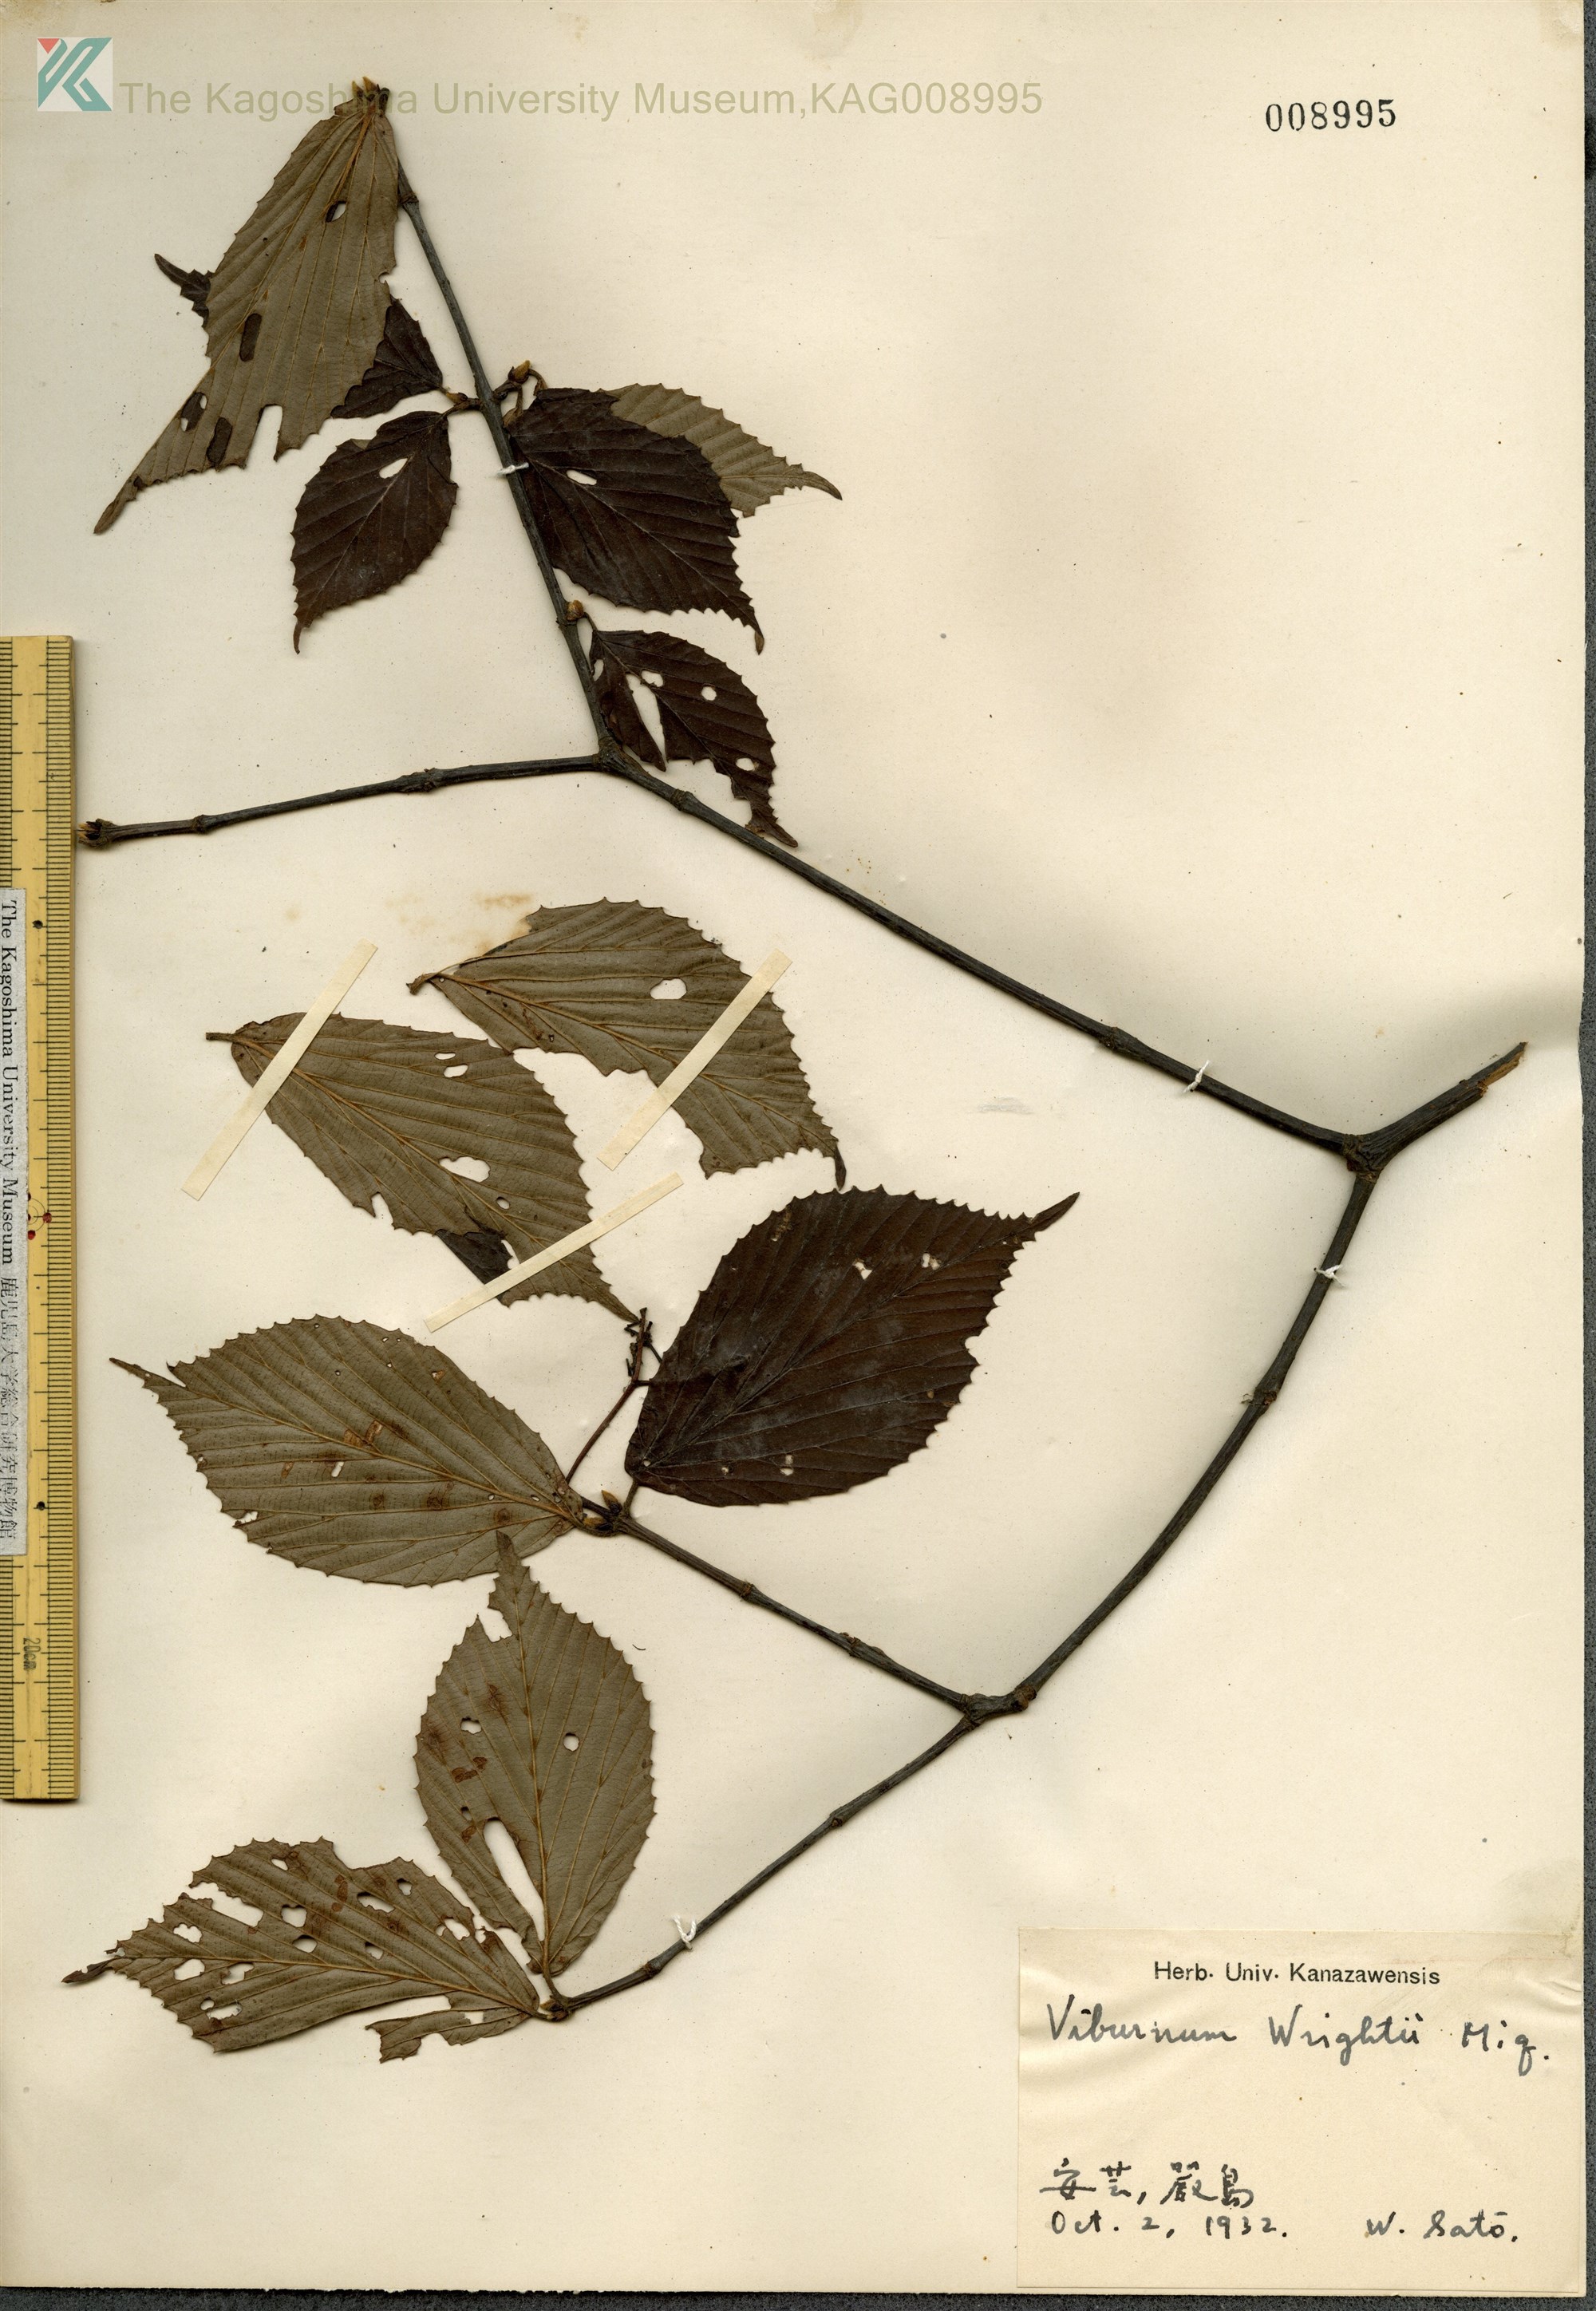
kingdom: Plantae
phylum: Tracheophyta
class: Magnoliopsida
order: Dipsacales
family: Viburnaceae
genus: Viburnum
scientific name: Viburnum wrightii
